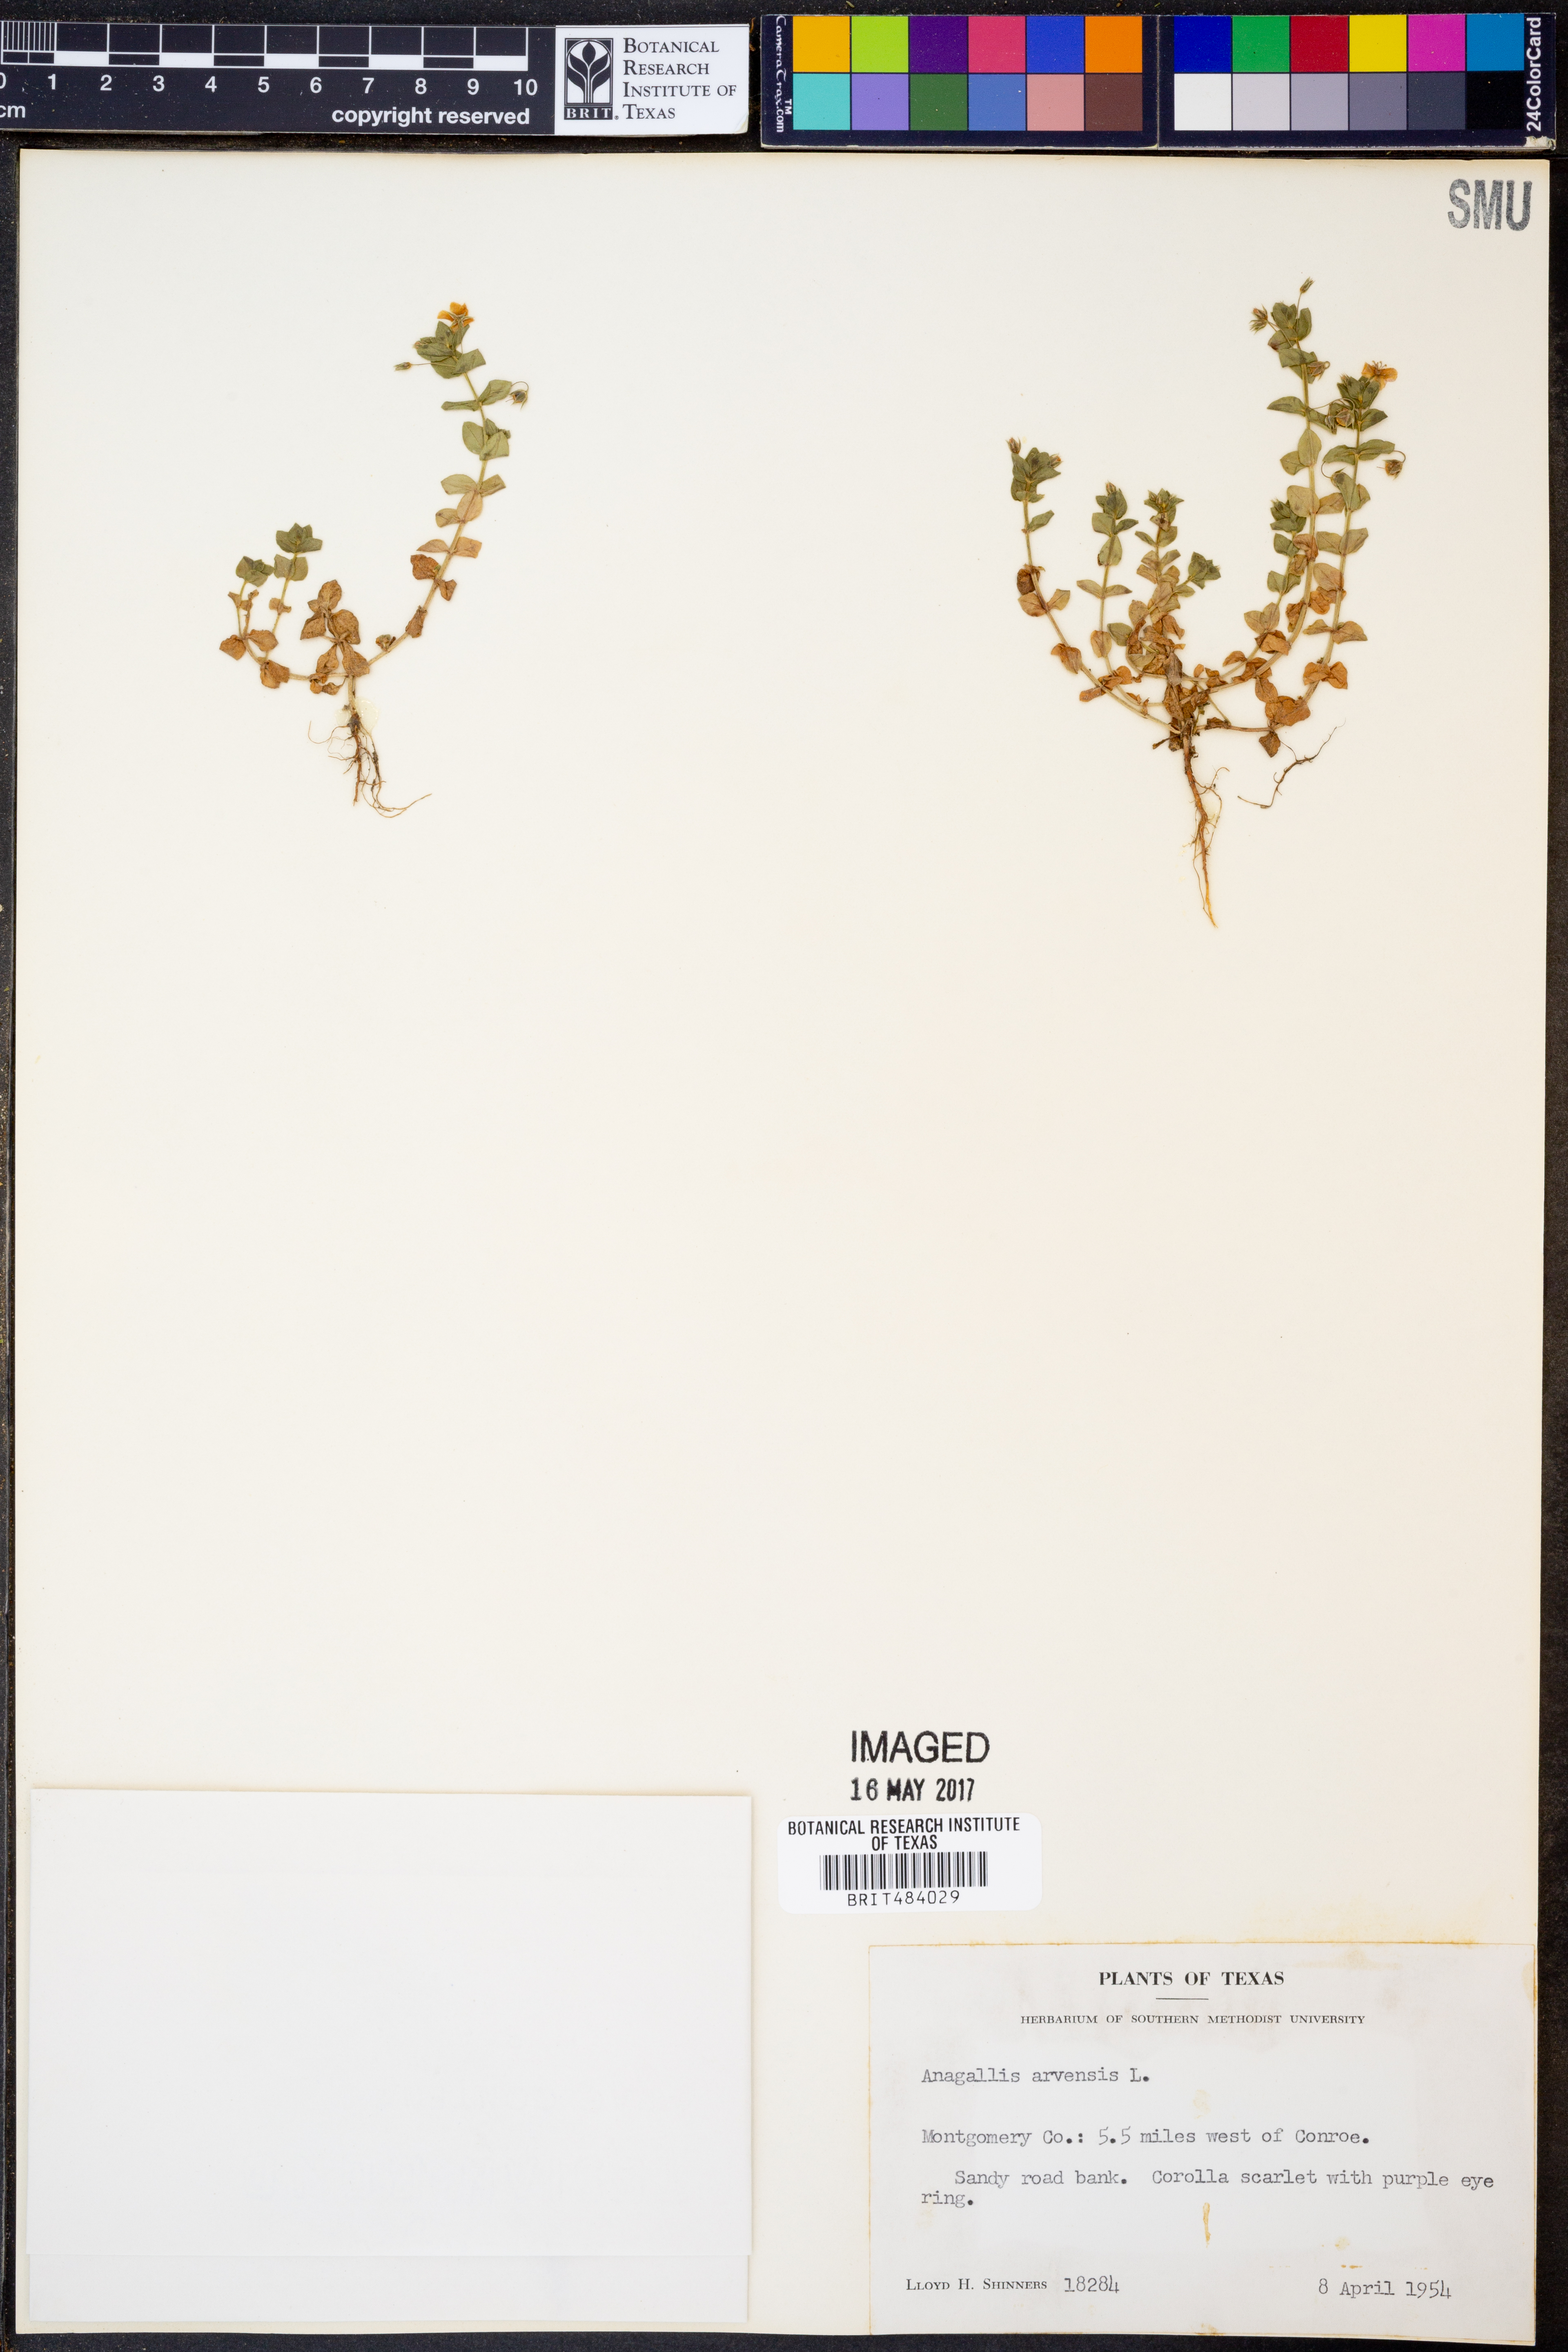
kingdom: Plantae
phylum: Tracheophyta
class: Magnoliopsida
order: Ericales
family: Primulaceae
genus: Lysimachia
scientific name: Lysimachia arvensis
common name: Scarlet pimpernel
